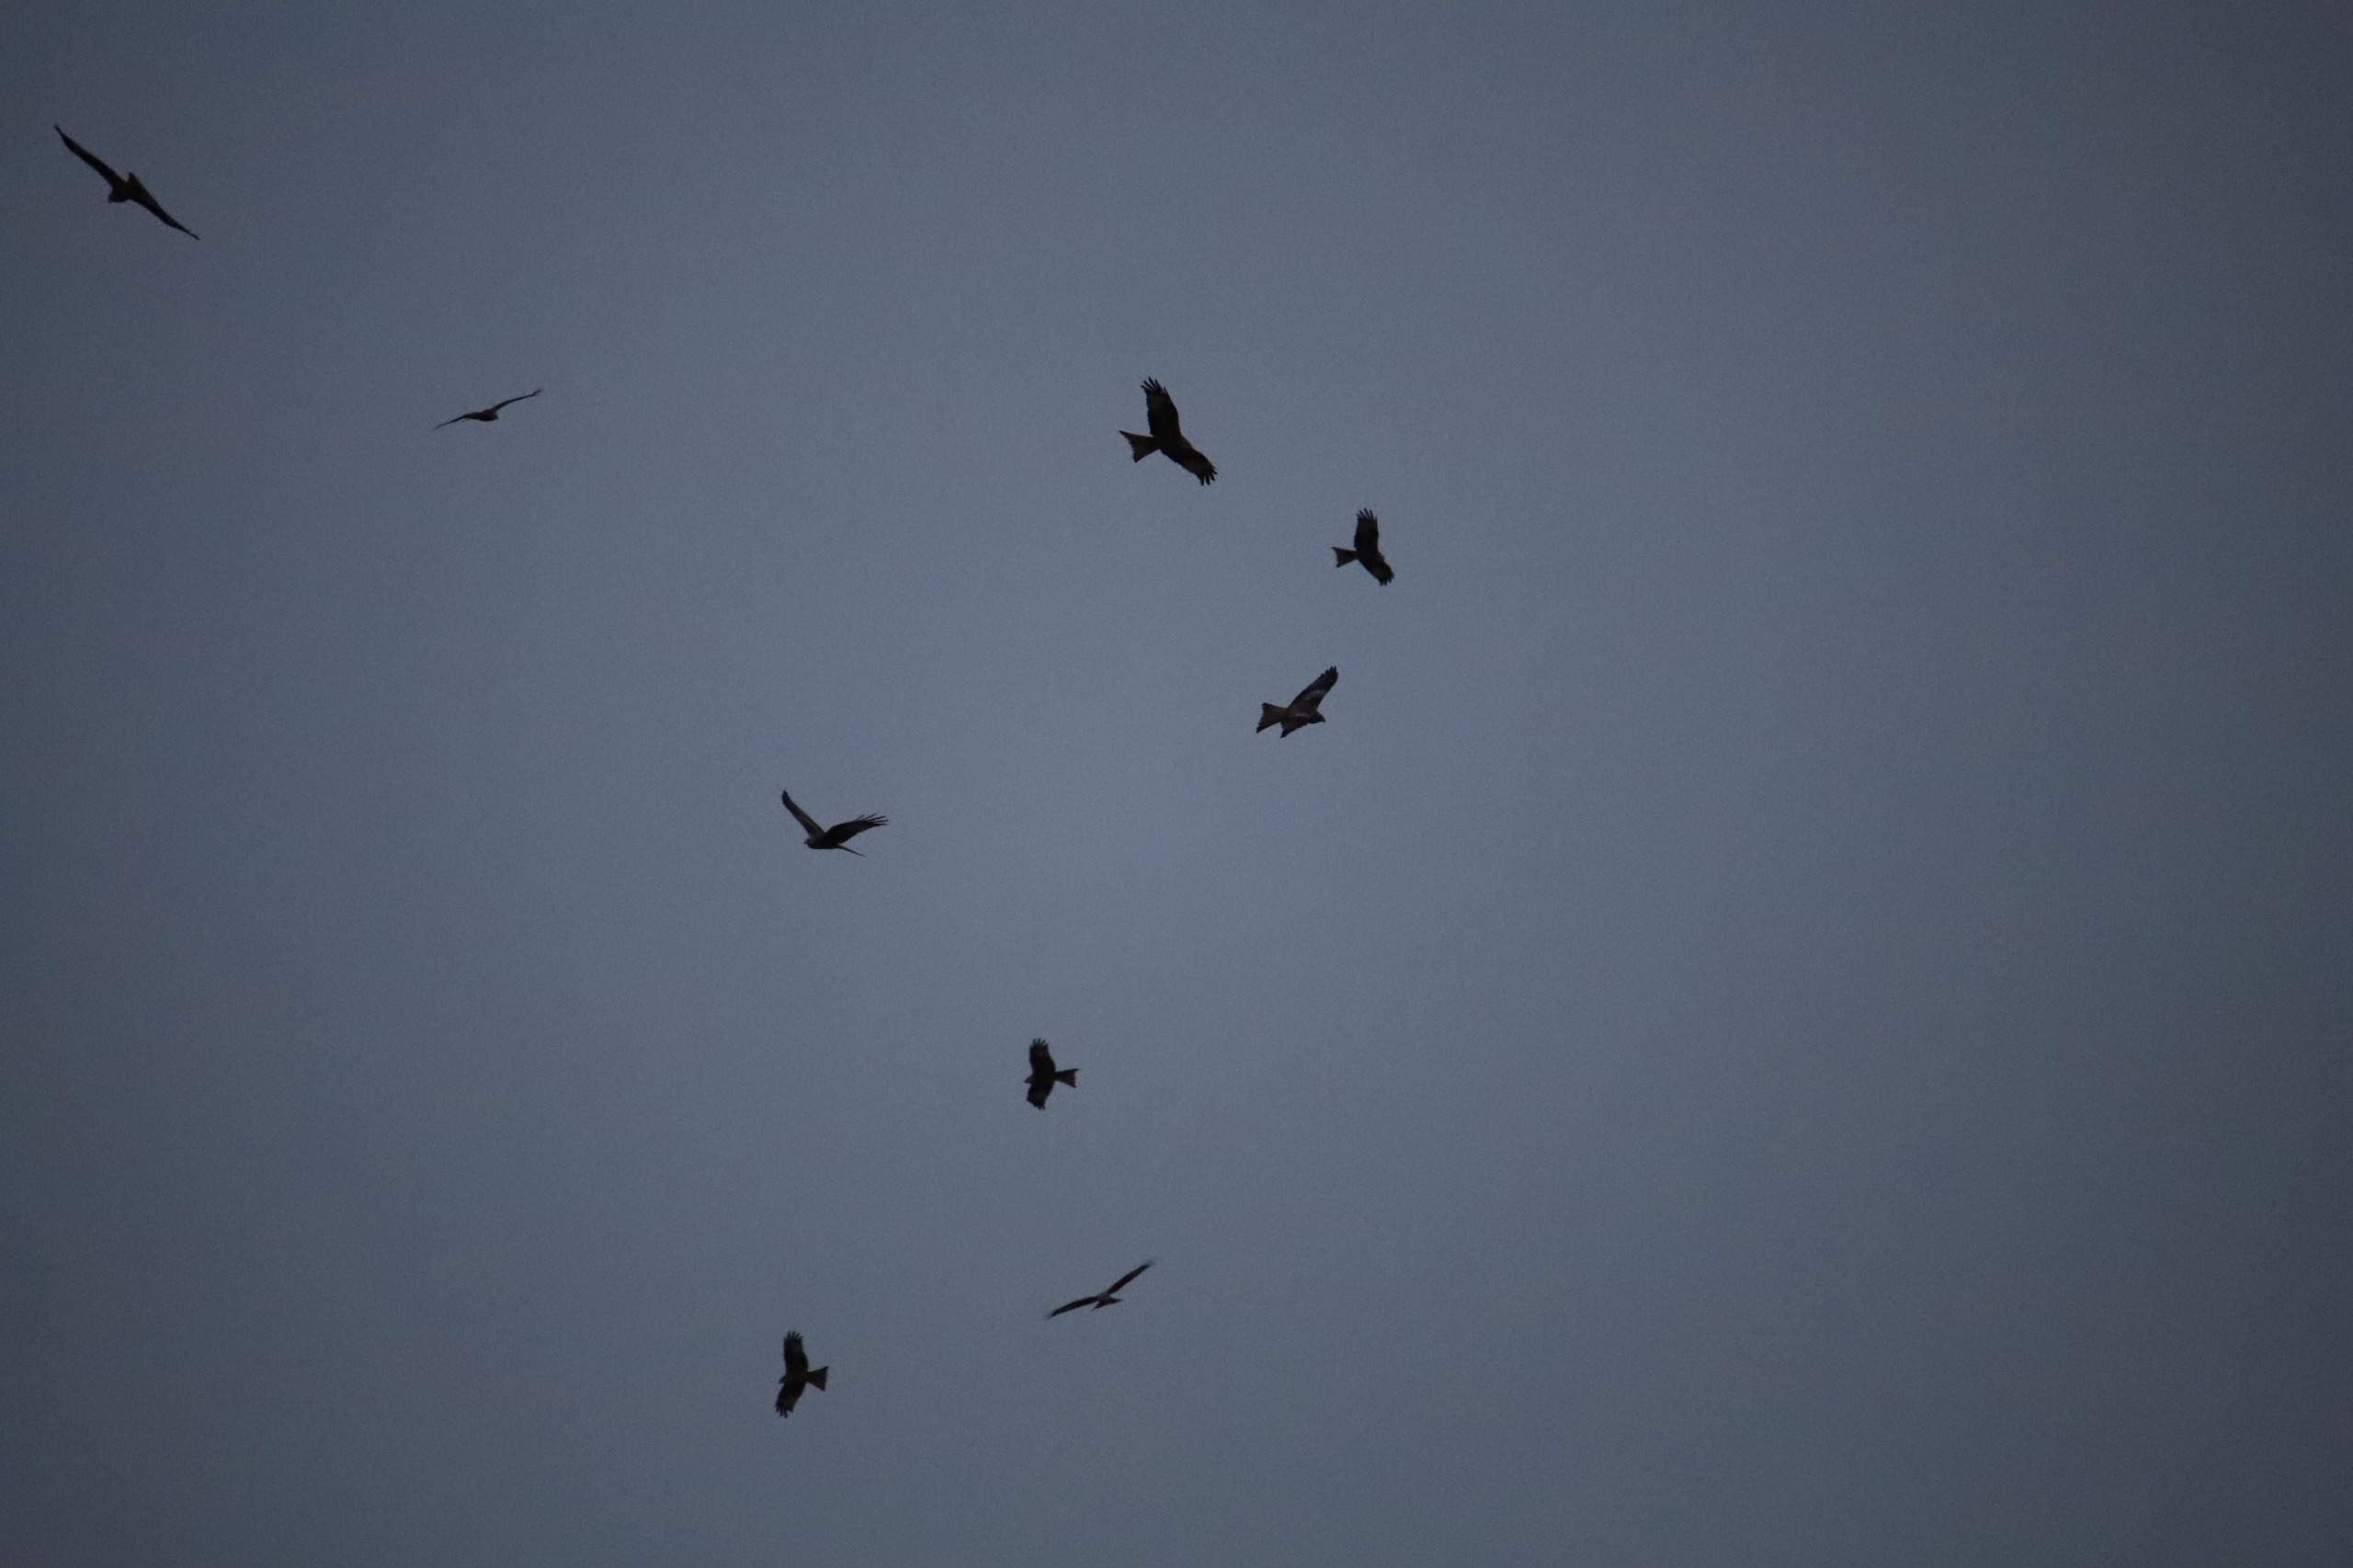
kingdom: Animalia
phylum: Chordata
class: Aves
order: Accipitriformes
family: Accipitridae
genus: Milvus
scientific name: Milvus milvus
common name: Rød glente
